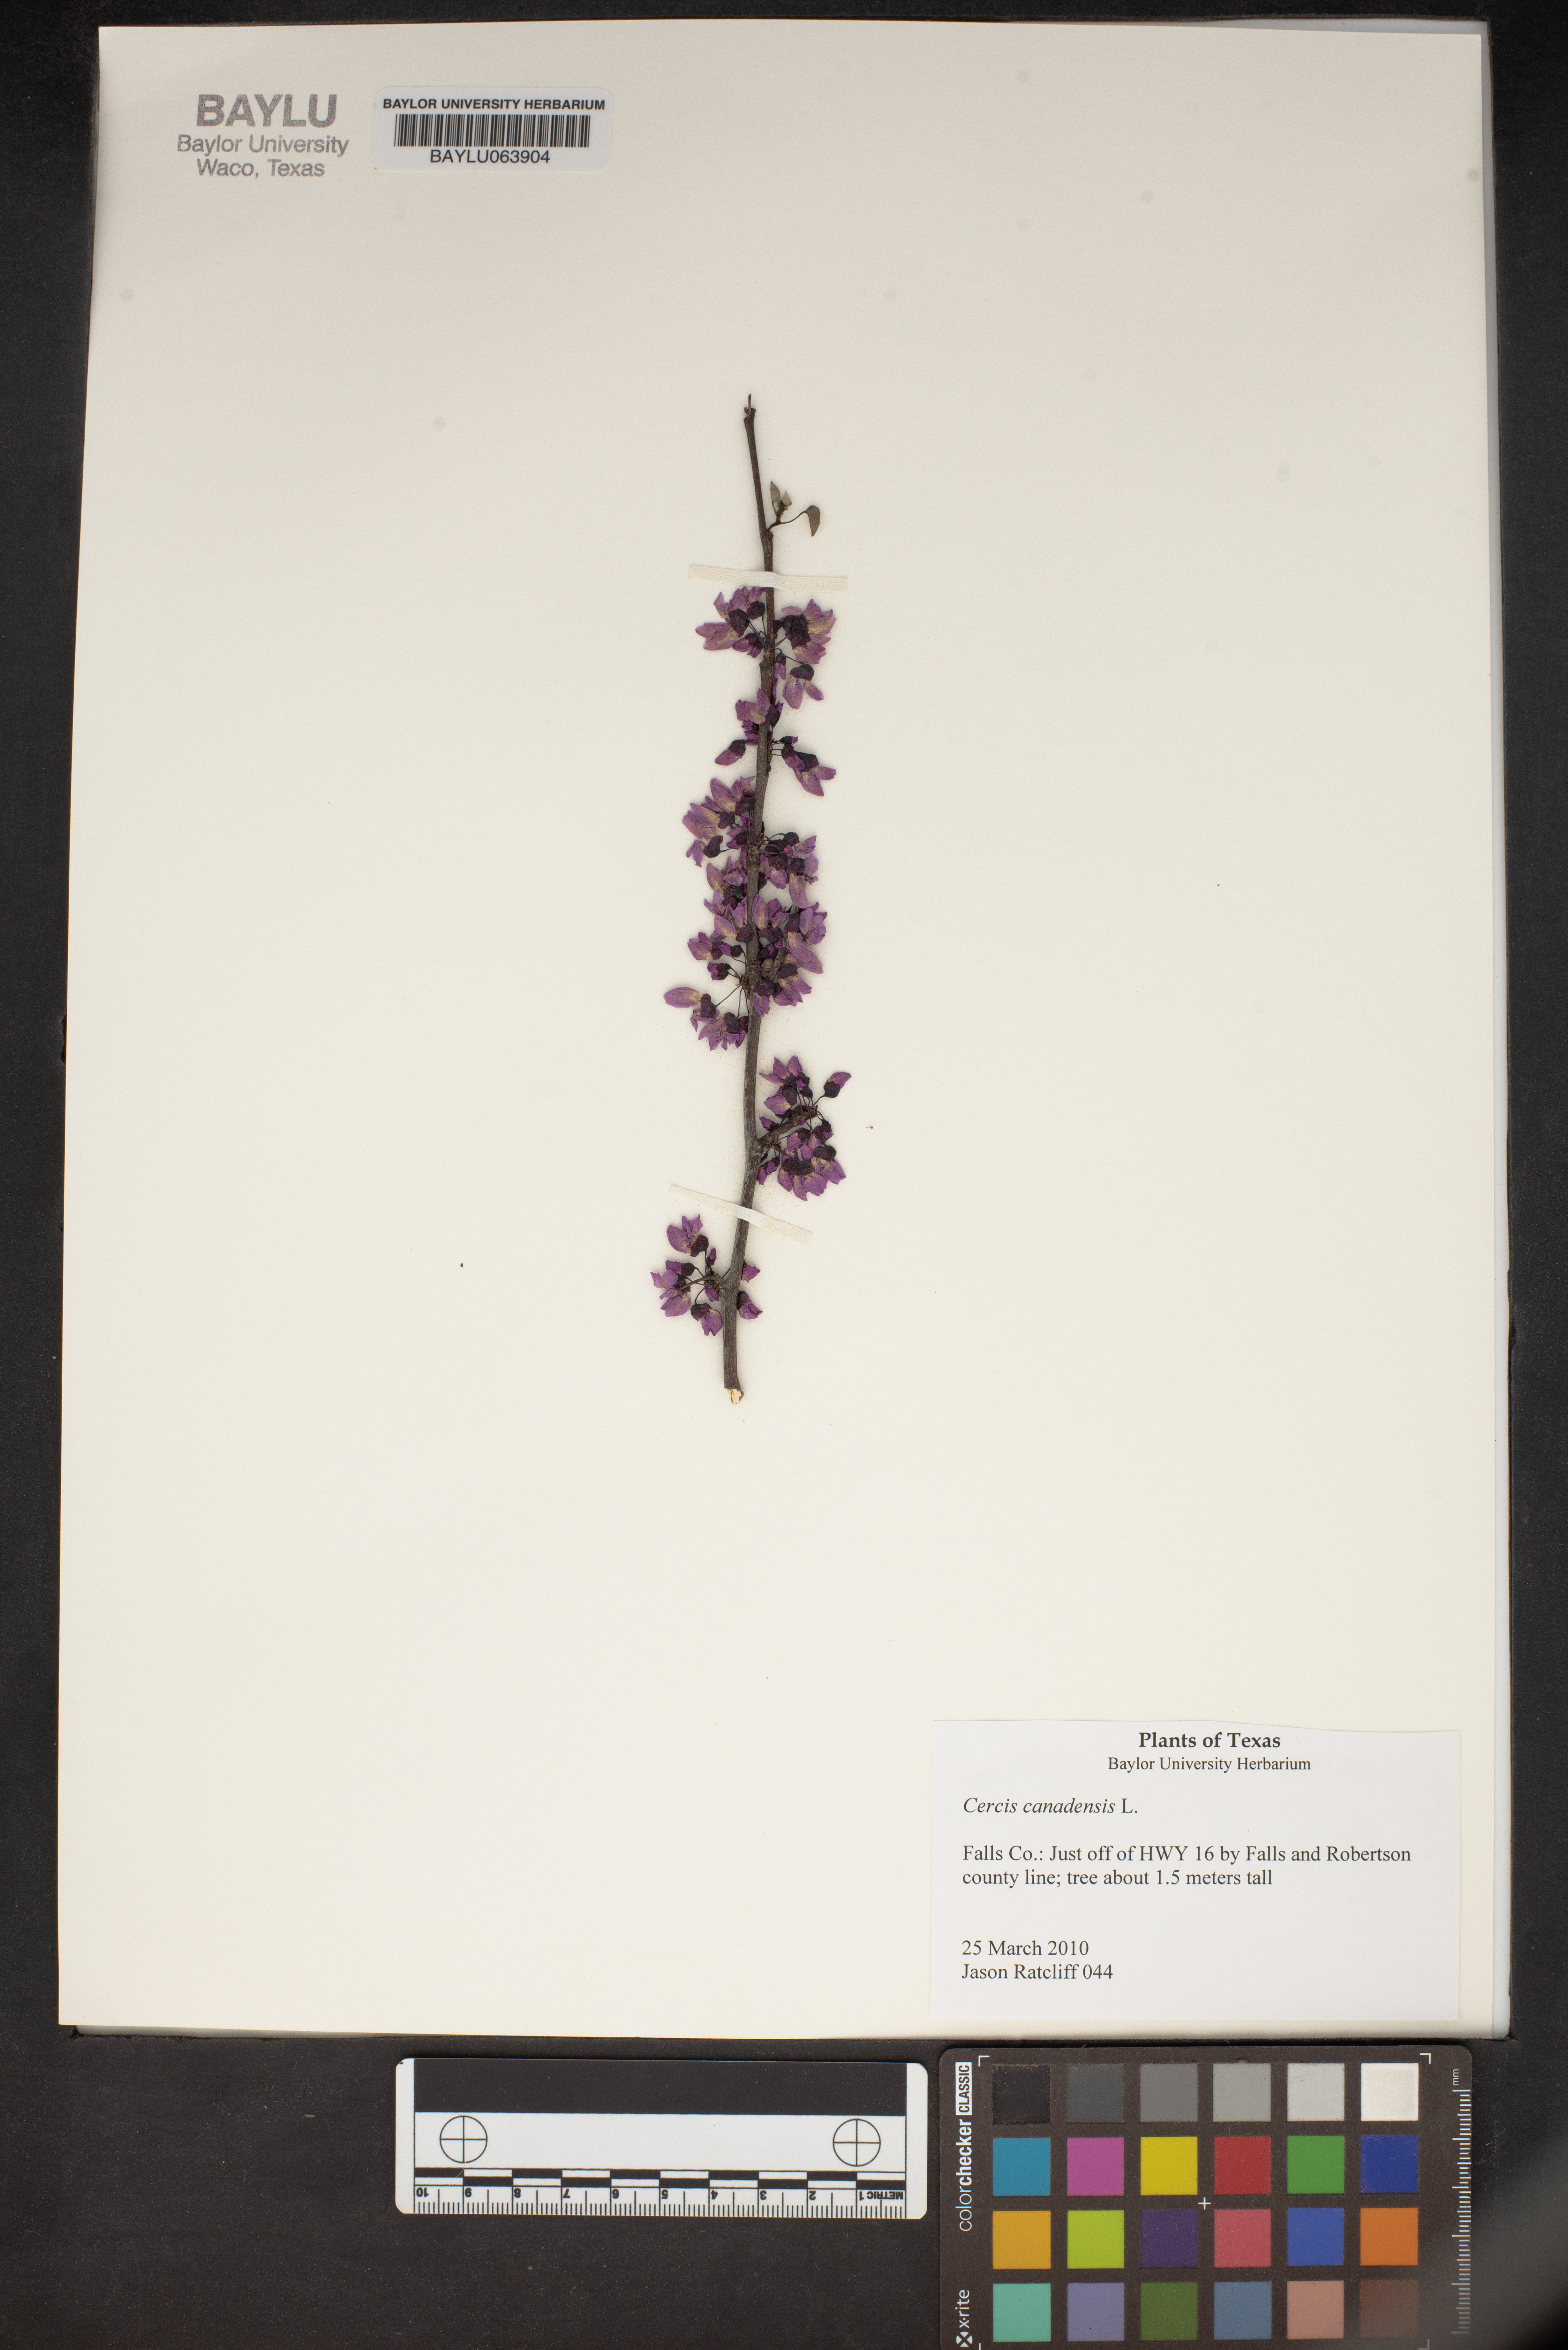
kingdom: Plantae
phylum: Tracheophyta
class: Magnoliopsida
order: Fabales
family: Fabaceae
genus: Cercis
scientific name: Cercis canadensis
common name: Eastern redbud
